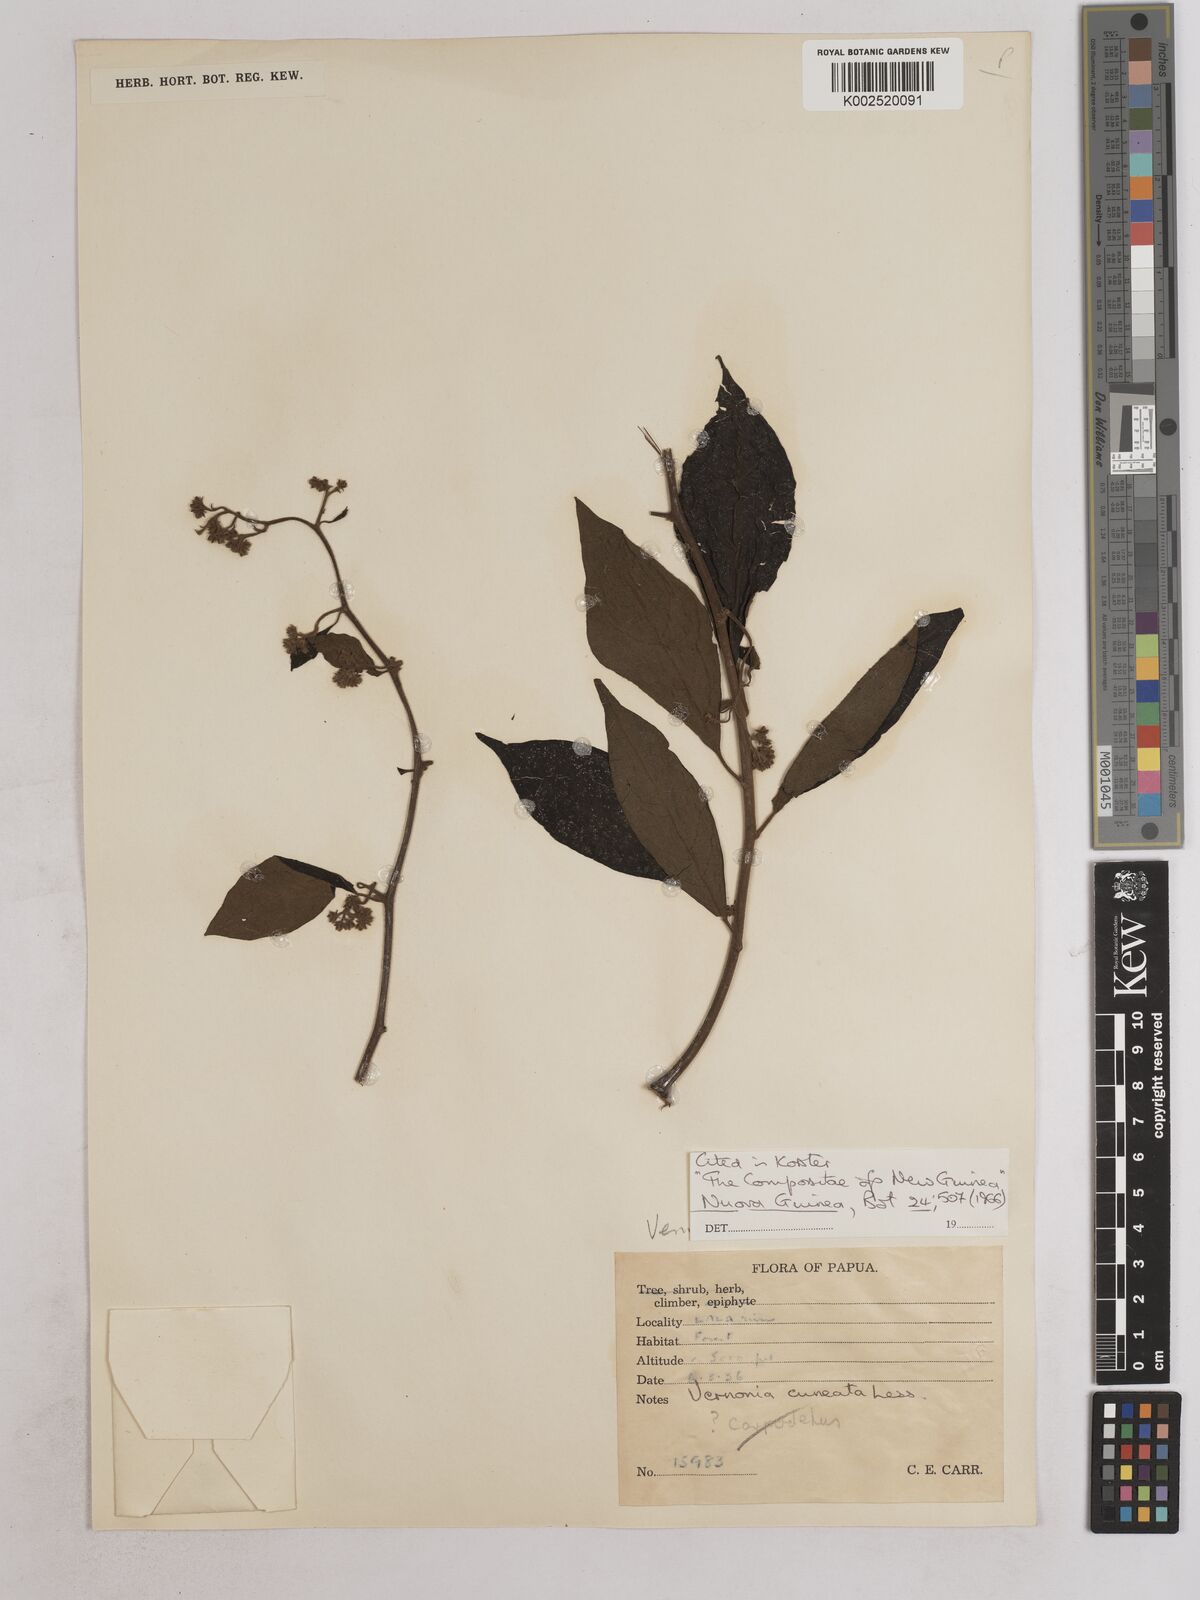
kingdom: Plantae
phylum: Tracheophyta
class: Magnoliopsida
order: Asterales
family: Asteraceae
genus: Decaneuropsis
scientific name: Decaneuropsis obovata
